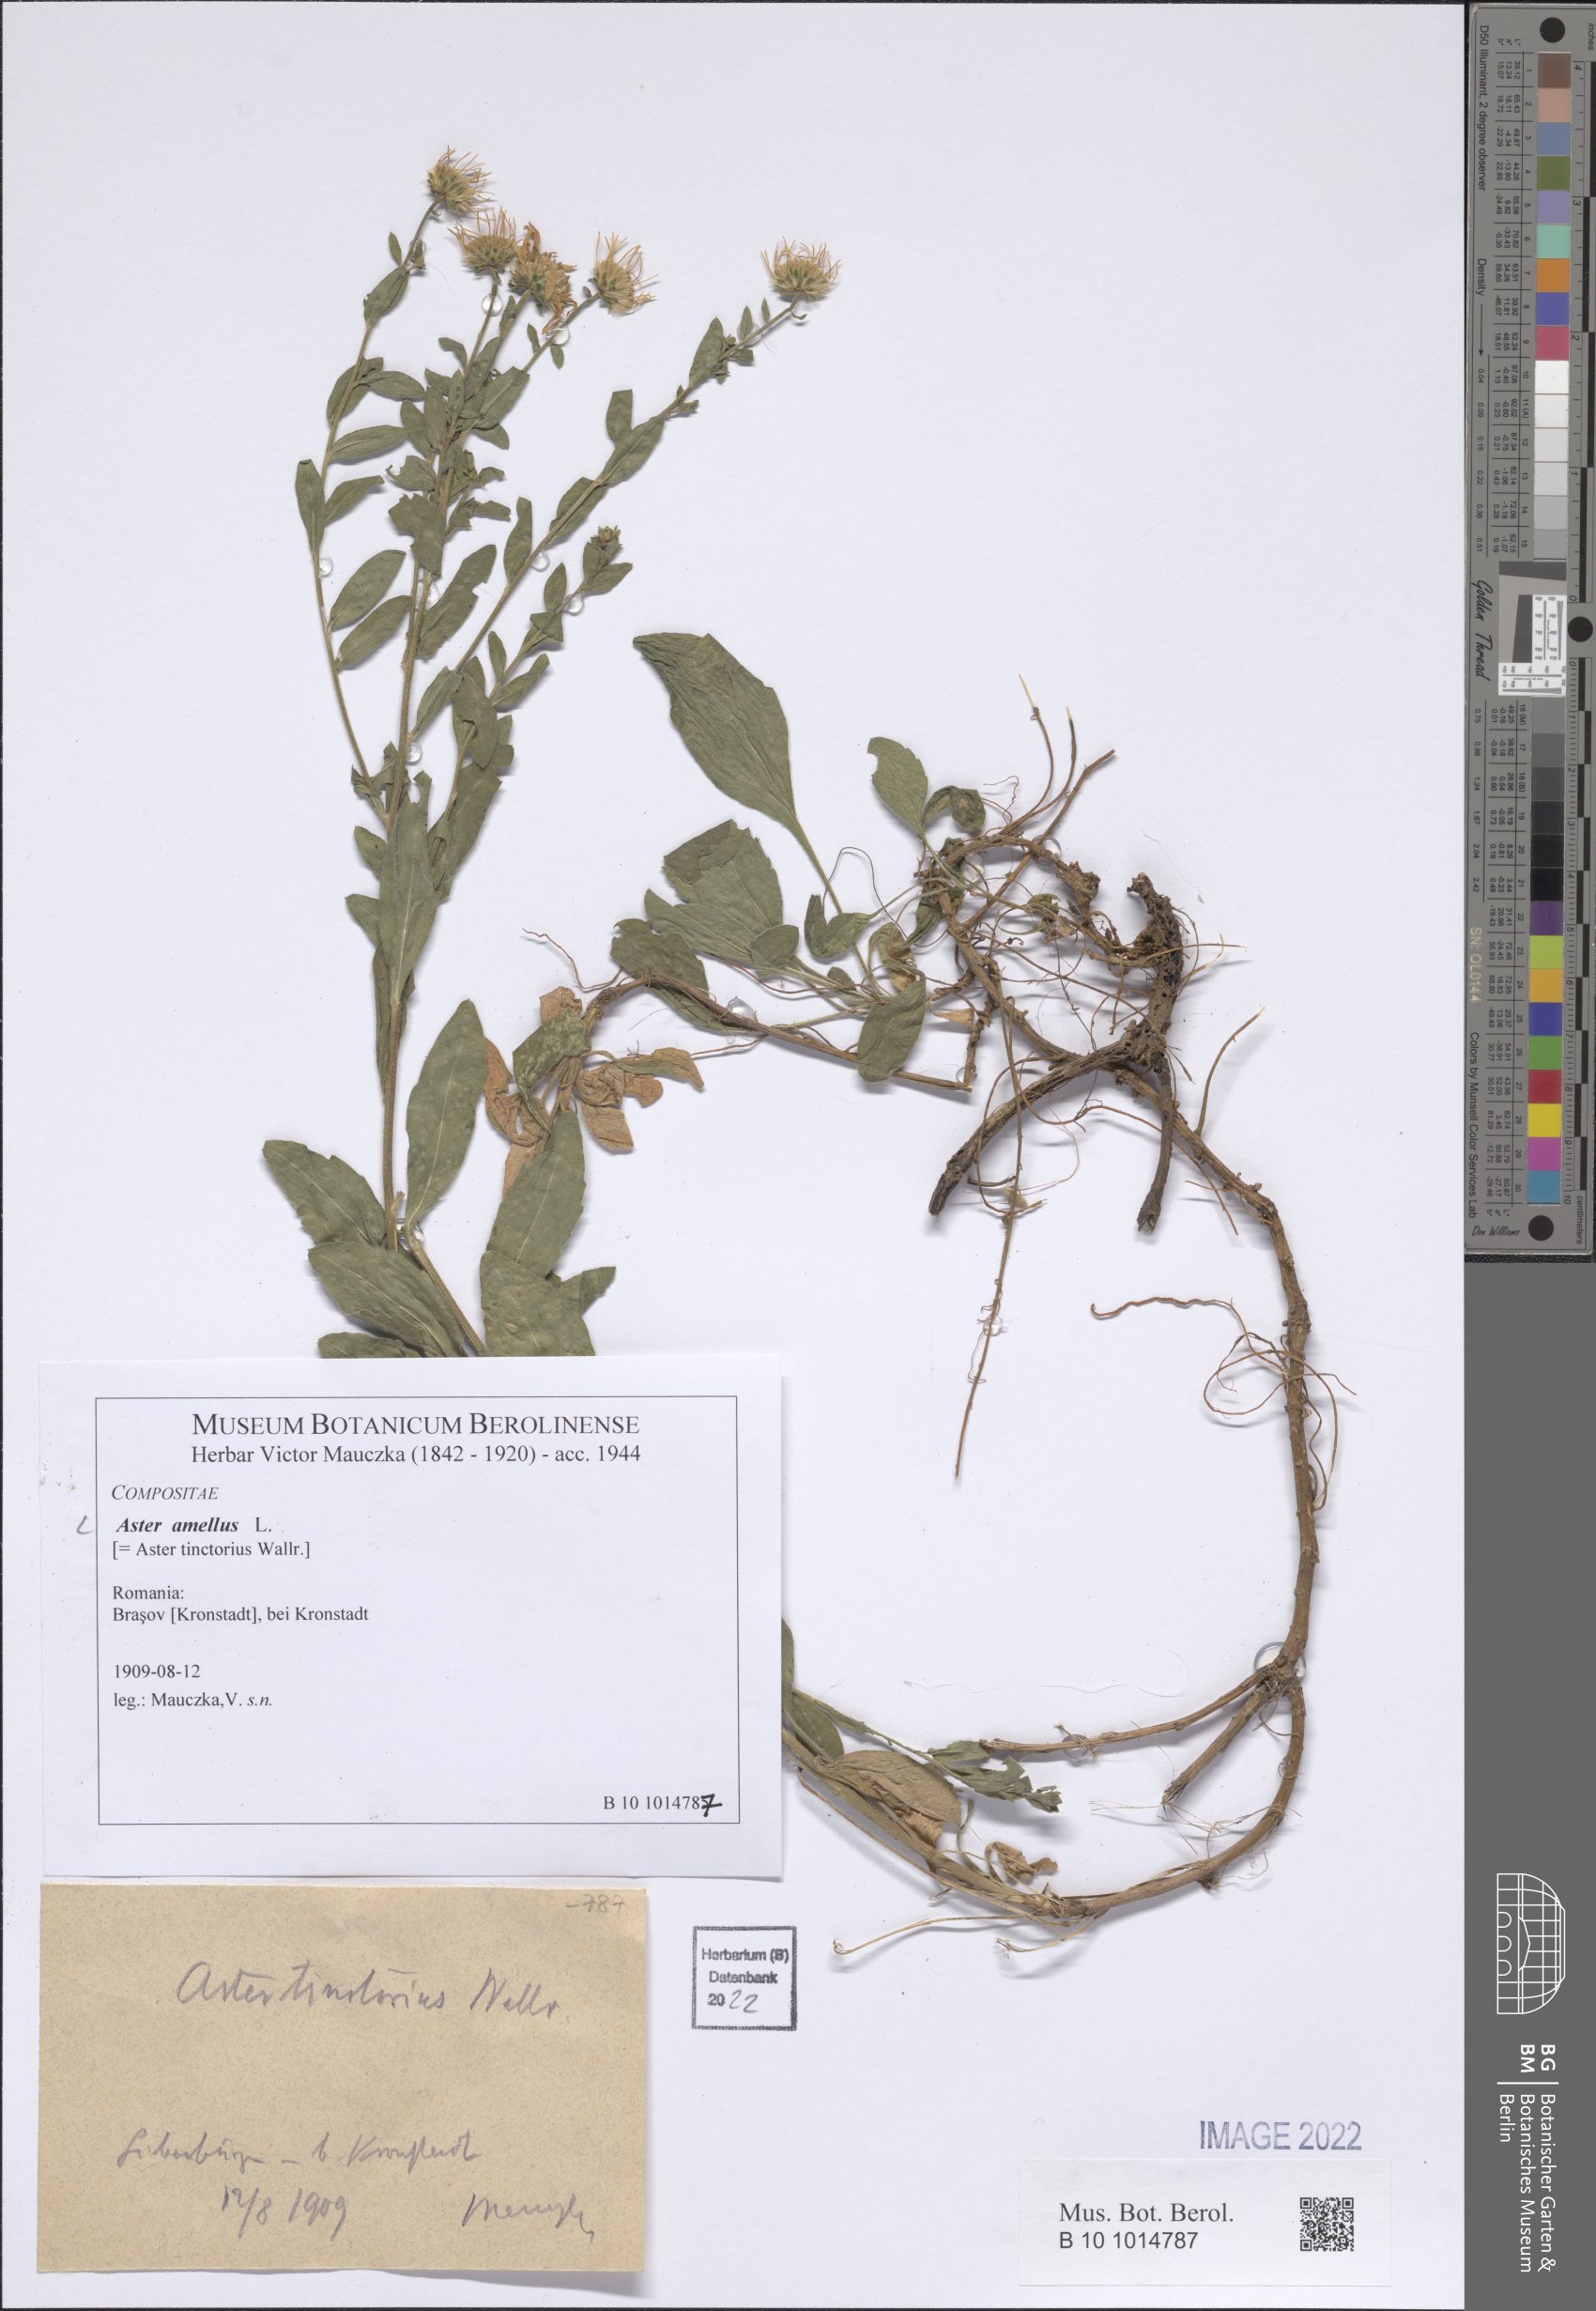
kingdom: Plantae
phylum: Tracheophyta
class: Magnoliopsida
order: Asterales
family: Asteraceae
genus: Aster
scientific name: Aster amellus
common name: European michaelmas daisy
